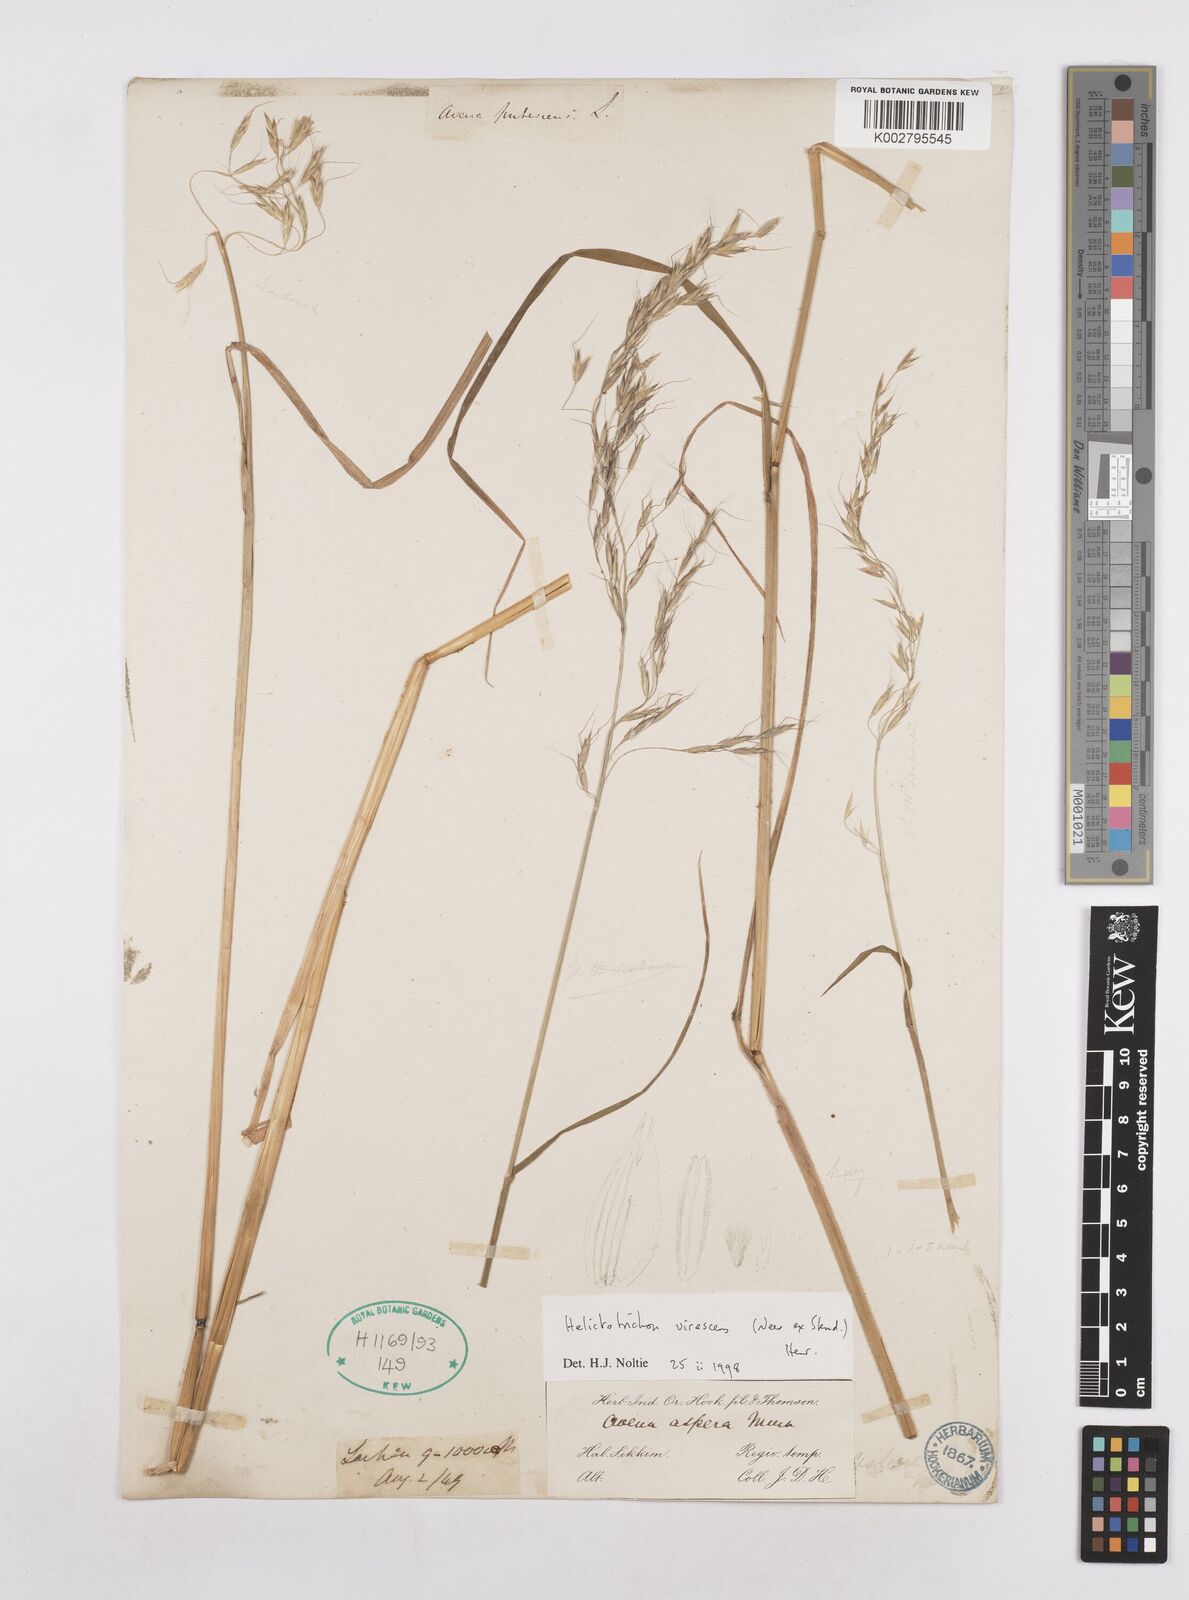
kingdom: Plantae
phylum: Tracheophyta
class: Liliopsida
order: Poales
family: Poaceae
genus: Trisetopsis
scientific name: Trisetopsis junghuhnii
